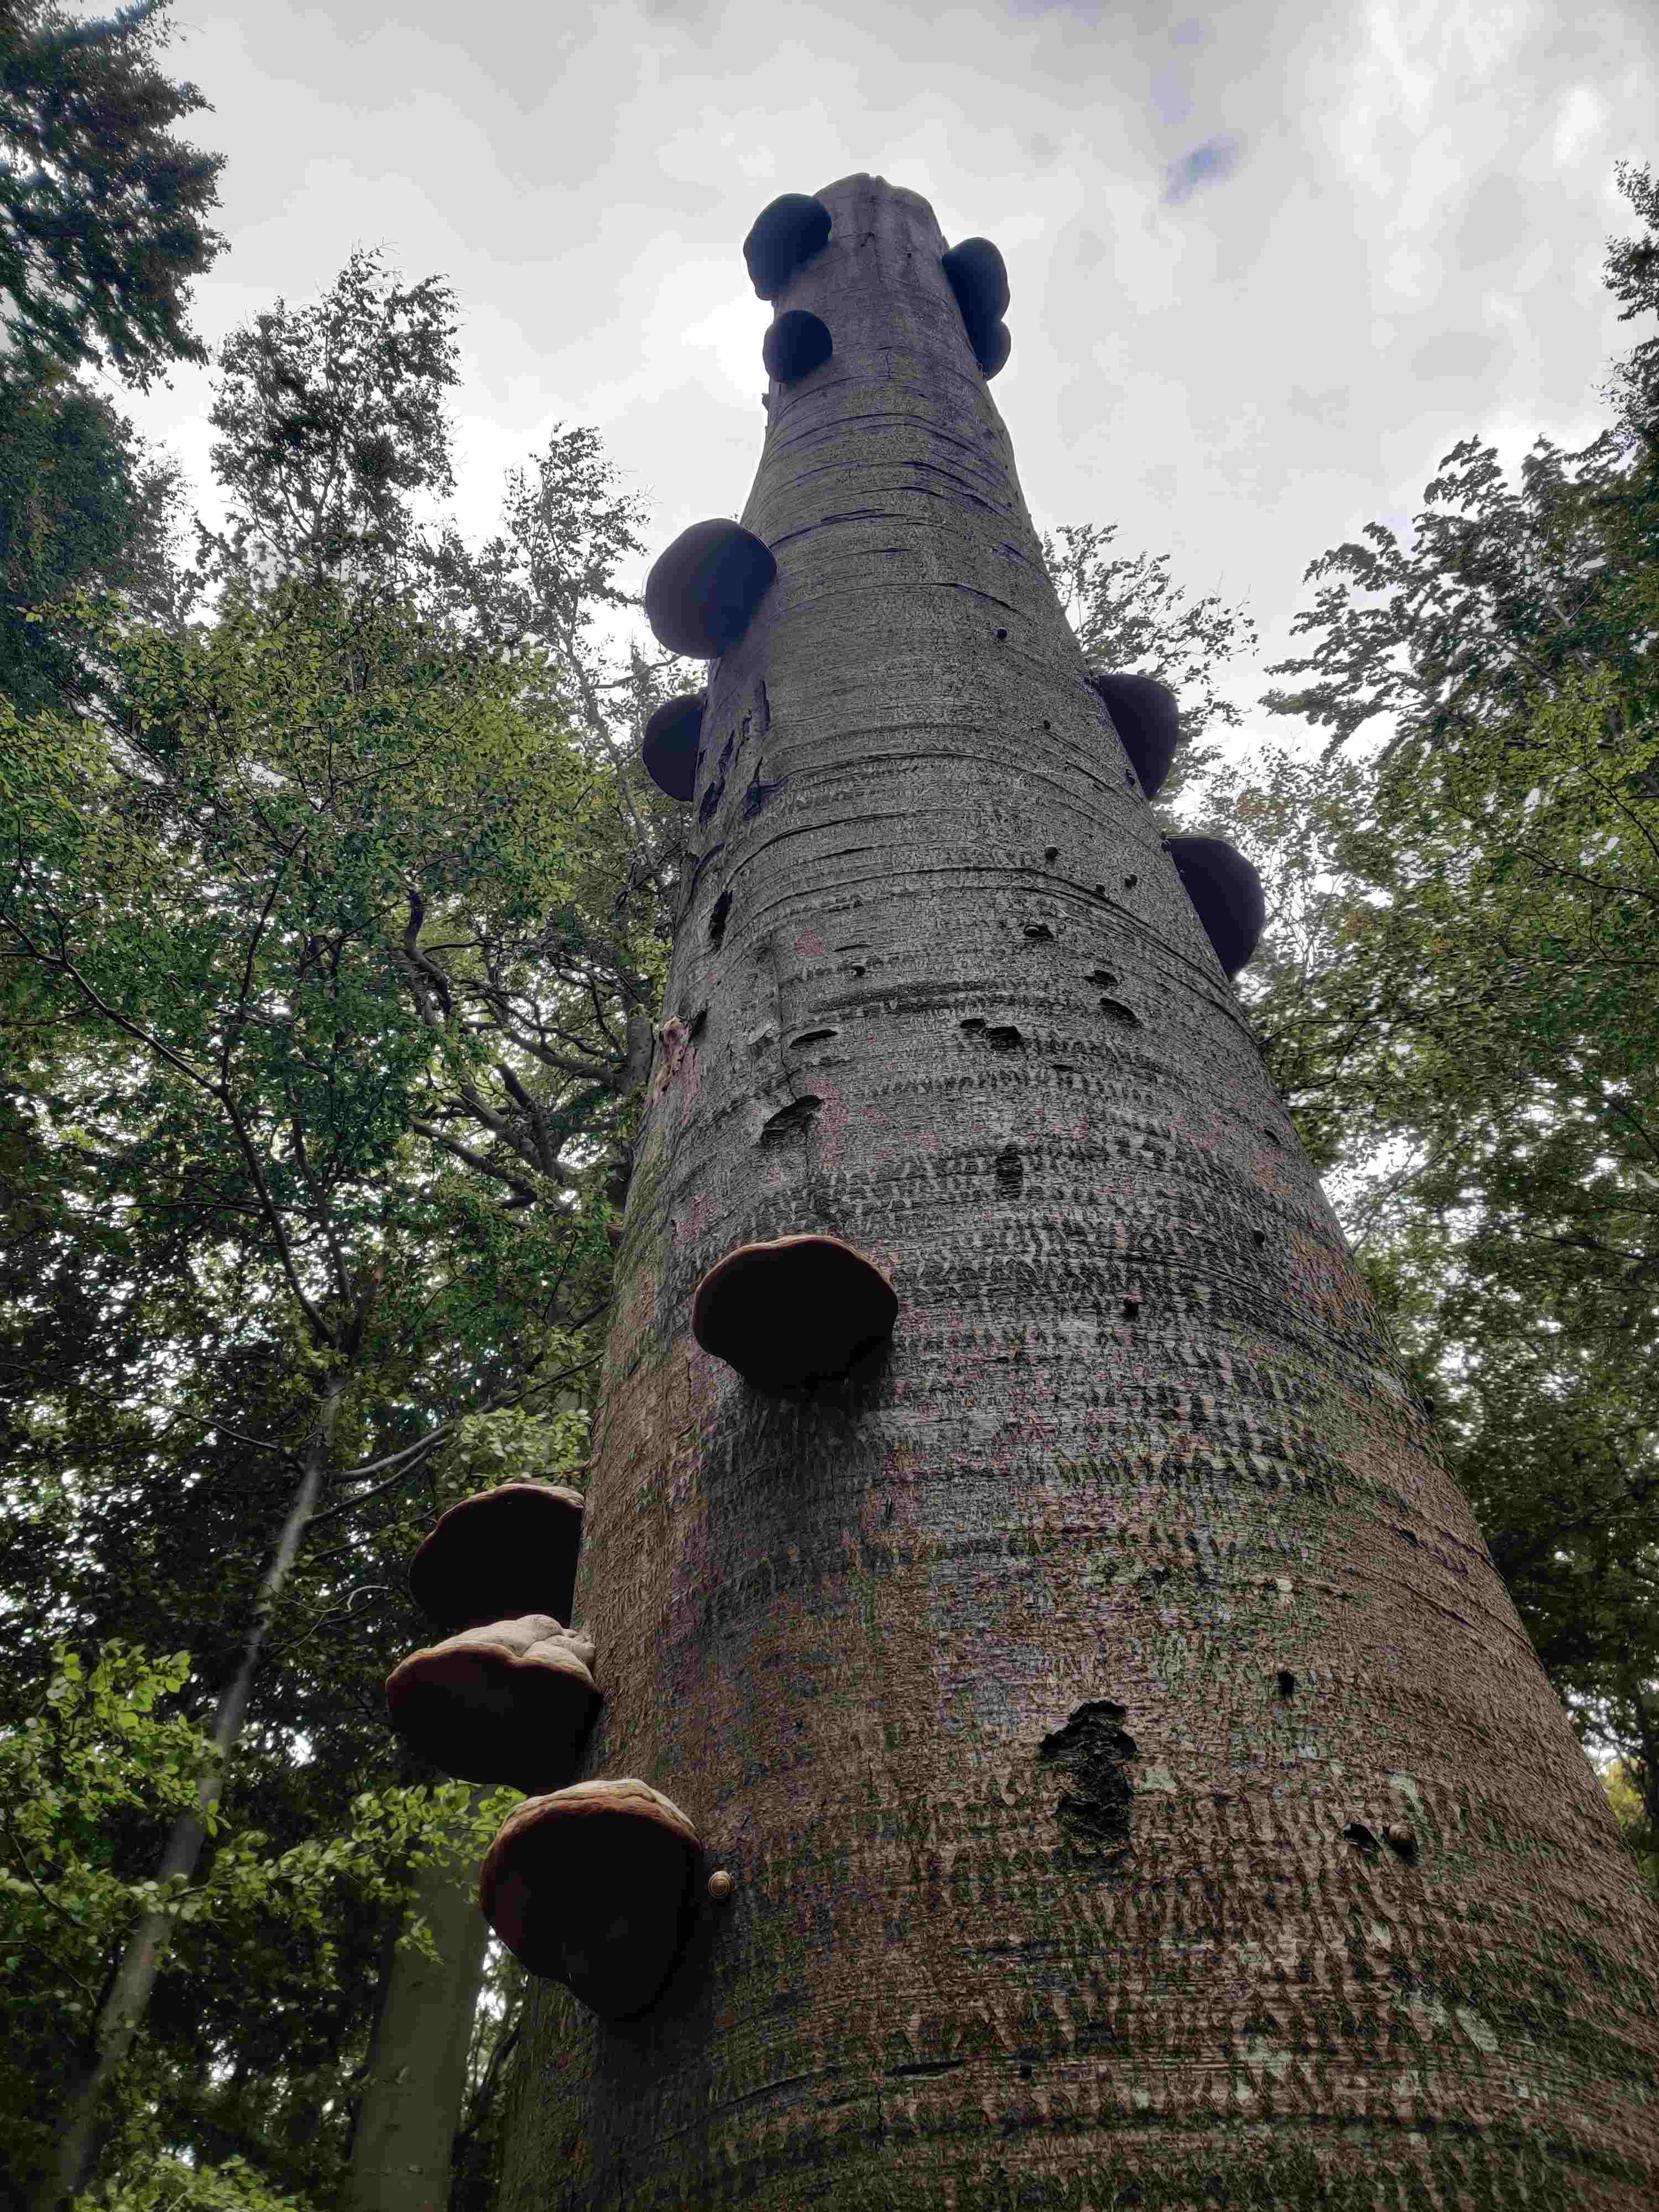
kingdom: Fungi
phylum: Basidiomycota
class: Agaricomycetes
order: Polyporales
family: Polyporaceae
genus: Fomes
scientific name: Fomes fomentarius
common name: tøndersvamp
